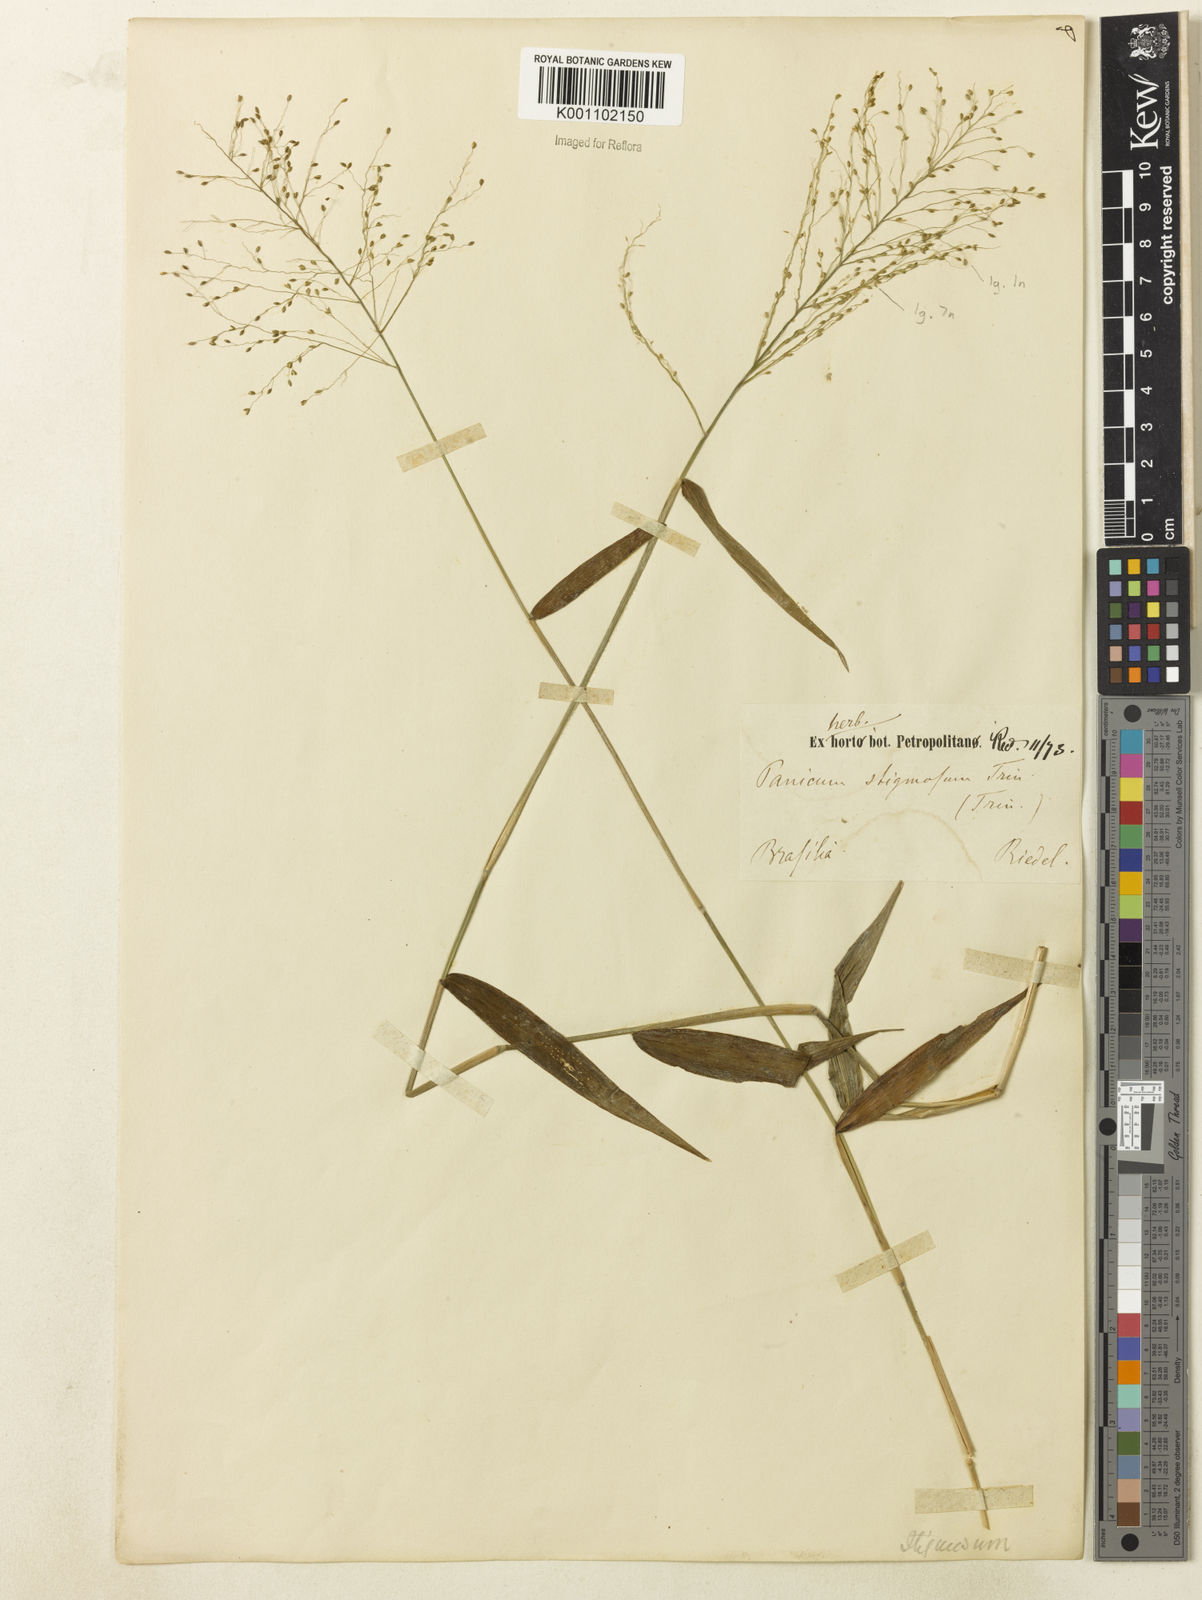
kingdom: Plantae
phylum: Tracheophyta
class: Liliopsida
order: Poales
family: Poaceae
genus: Dichanthelium
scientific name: Dichanthelium hebotes
